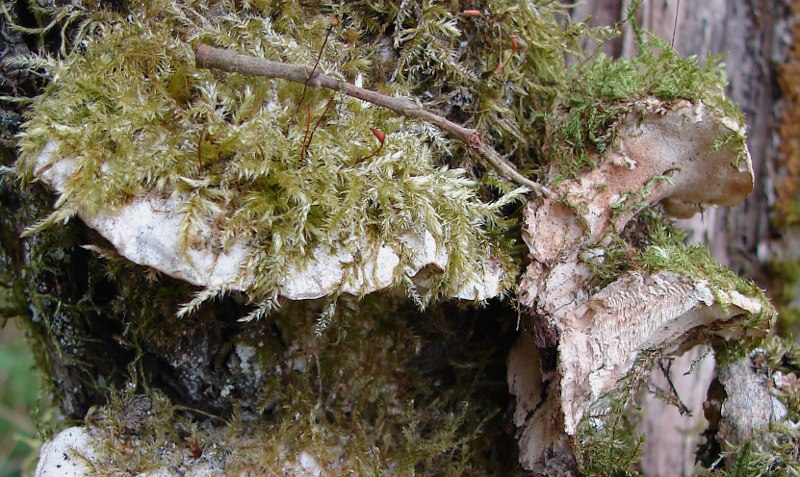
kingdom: Fungi
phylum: Basidiomycota
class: Agaricomycetes
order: Hymenochaetales
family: Oxyporaceae
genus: Oxyporus
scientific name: Oxyporus populinus
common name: sammenvokset trylleporesvamp
